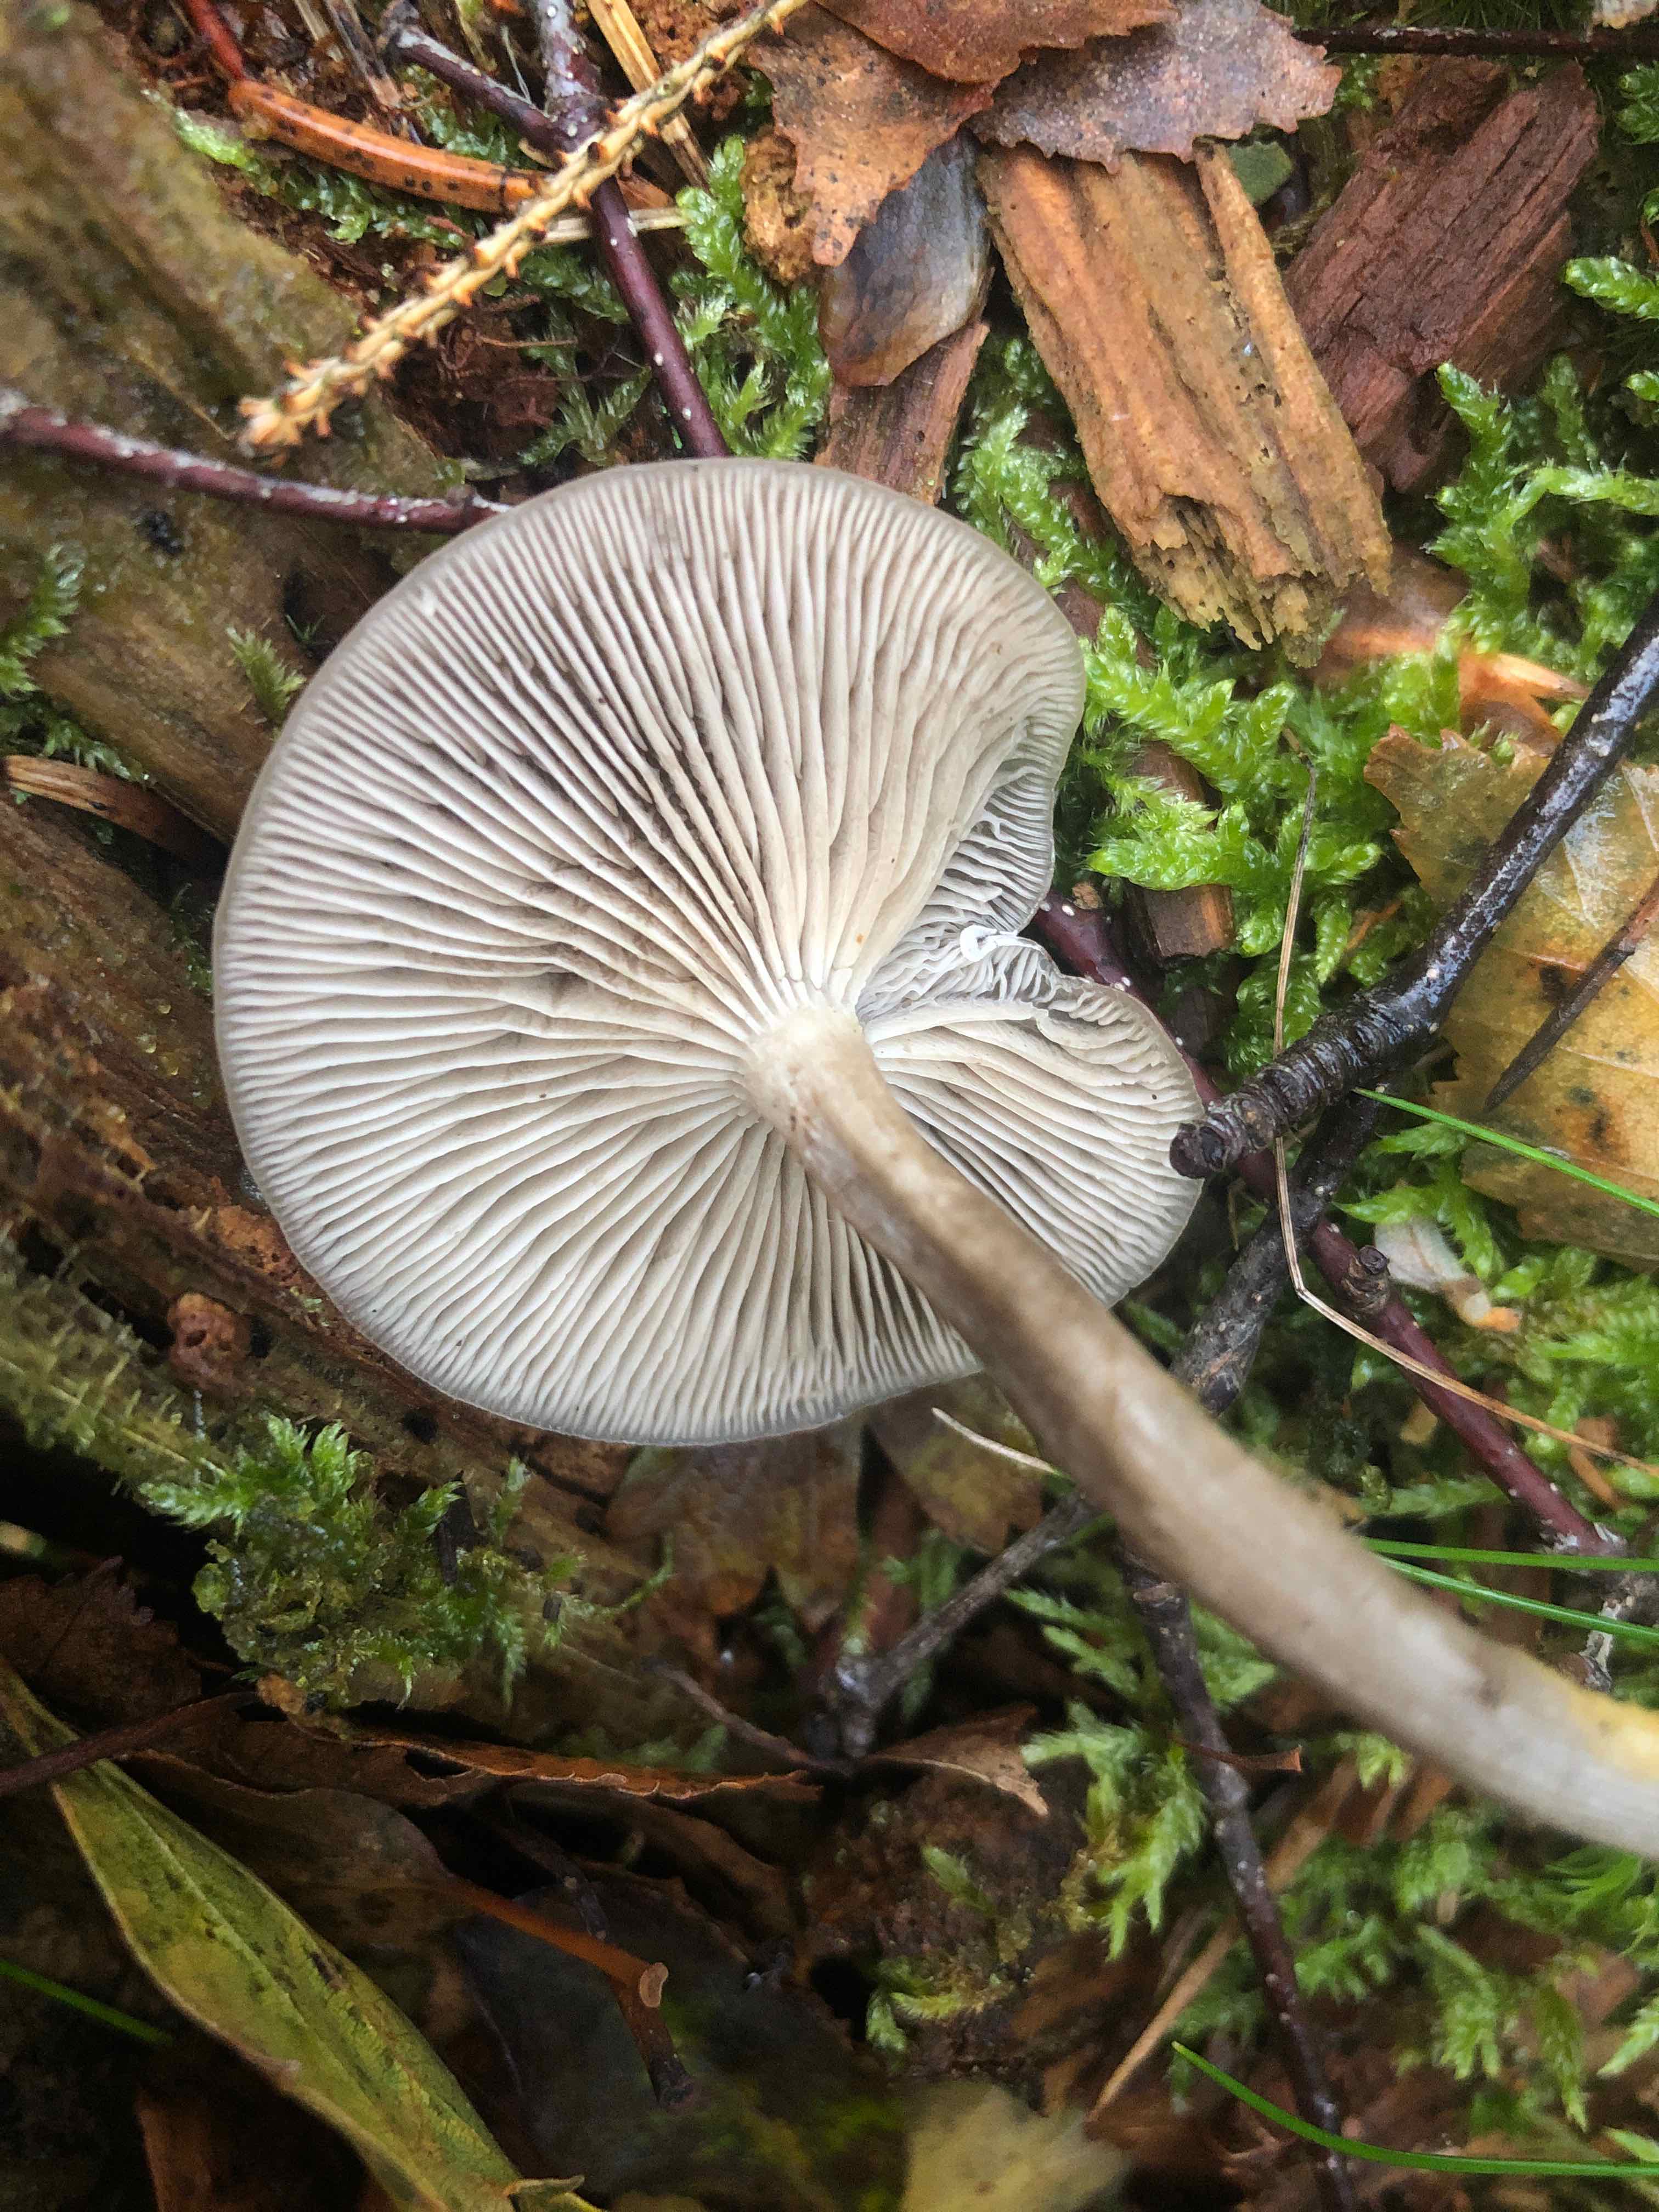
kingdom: Fungi
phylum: Basidiomycota
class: Agaricomycetes
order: Agaricales
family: Tricholomataceae
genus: Clitocybe
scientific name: Clitocybe
